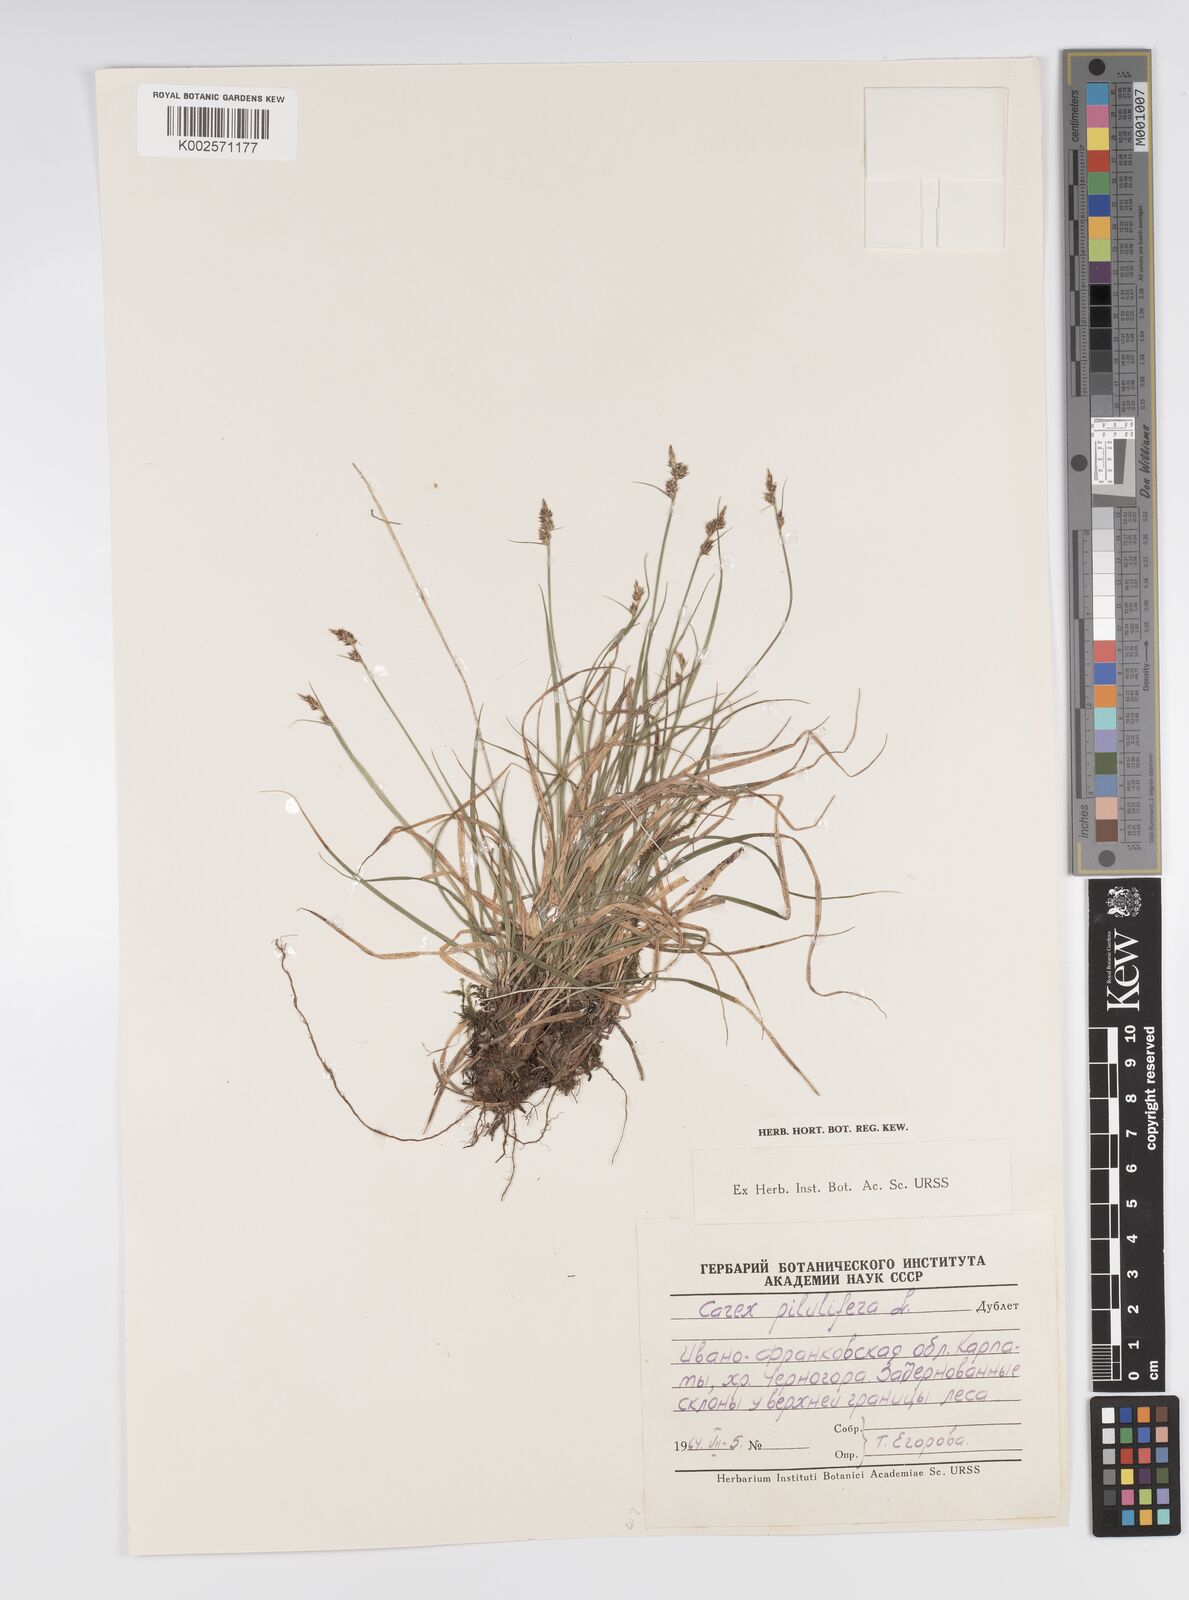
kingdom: Plantae
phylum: Tracheophyta
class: Liliopsida
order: Poales
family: Cyperaceae
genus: Carex
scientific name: Carex pilulifera
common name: Pill sedge
